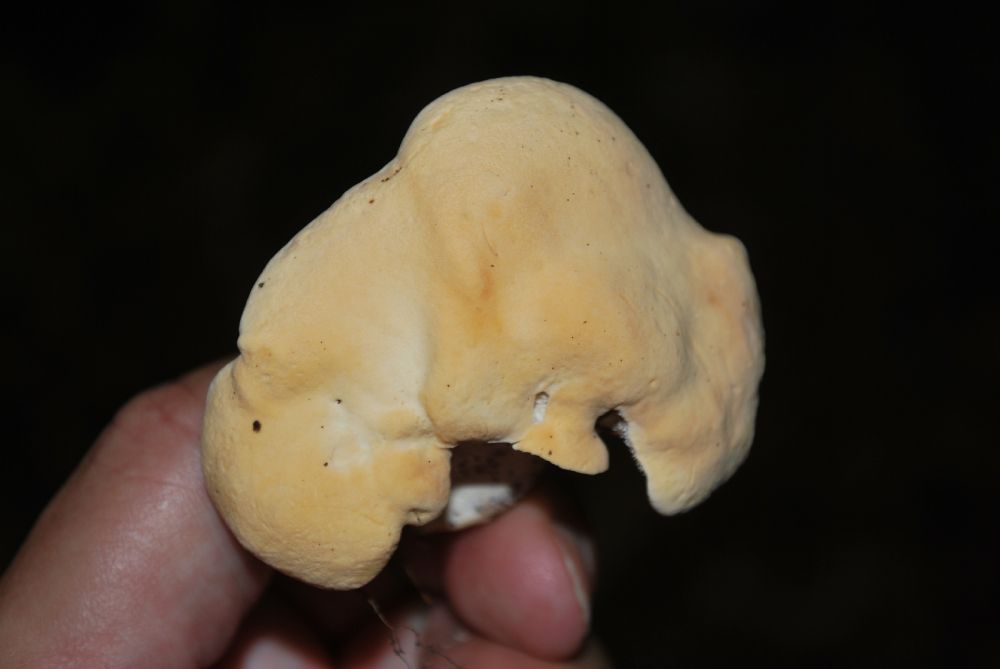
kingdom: Fungi
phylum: Basidiomycota
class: Agaricomycetes
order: Cantharellales
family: Hydnaceae
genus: Hydnum
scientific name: Hydnum repandum
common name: almindelig pigsvamp
